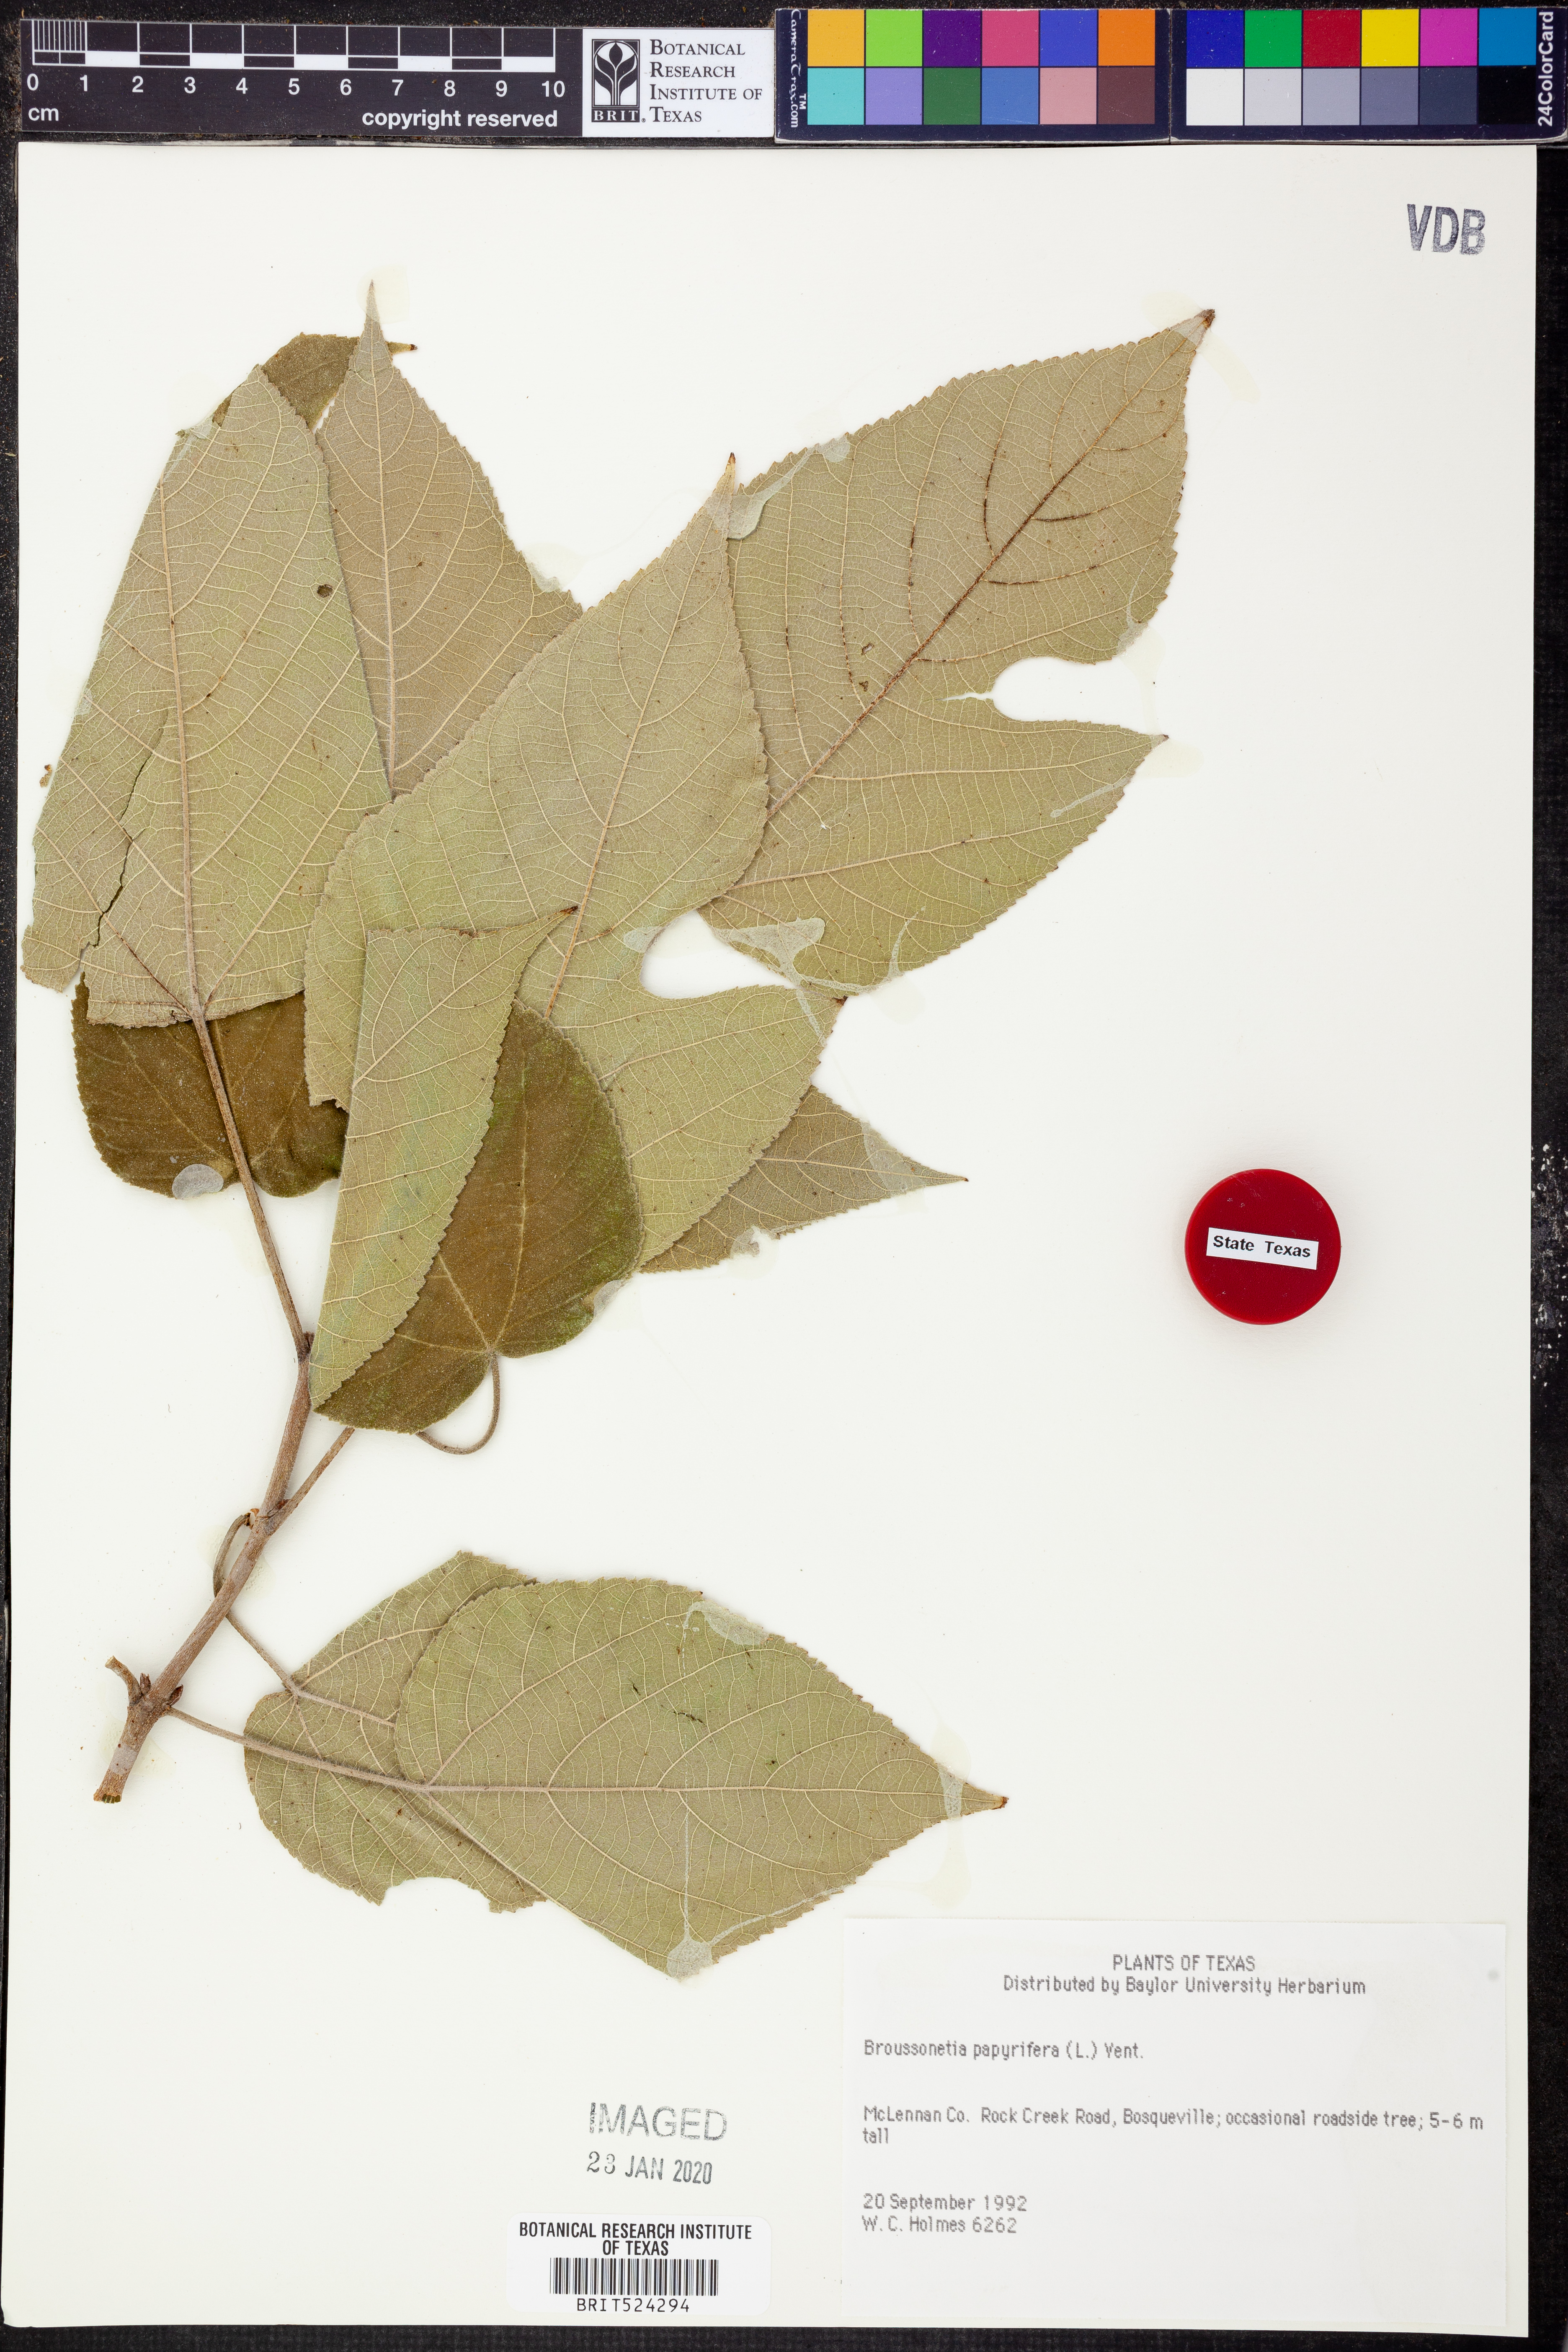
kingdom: Plantae
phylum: Tracheophyta
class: Magnoliopsida
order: Rosales
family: Moraceae
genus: Broussonetia
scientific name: Broussonetia papyrifera
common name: Paper mulberry
